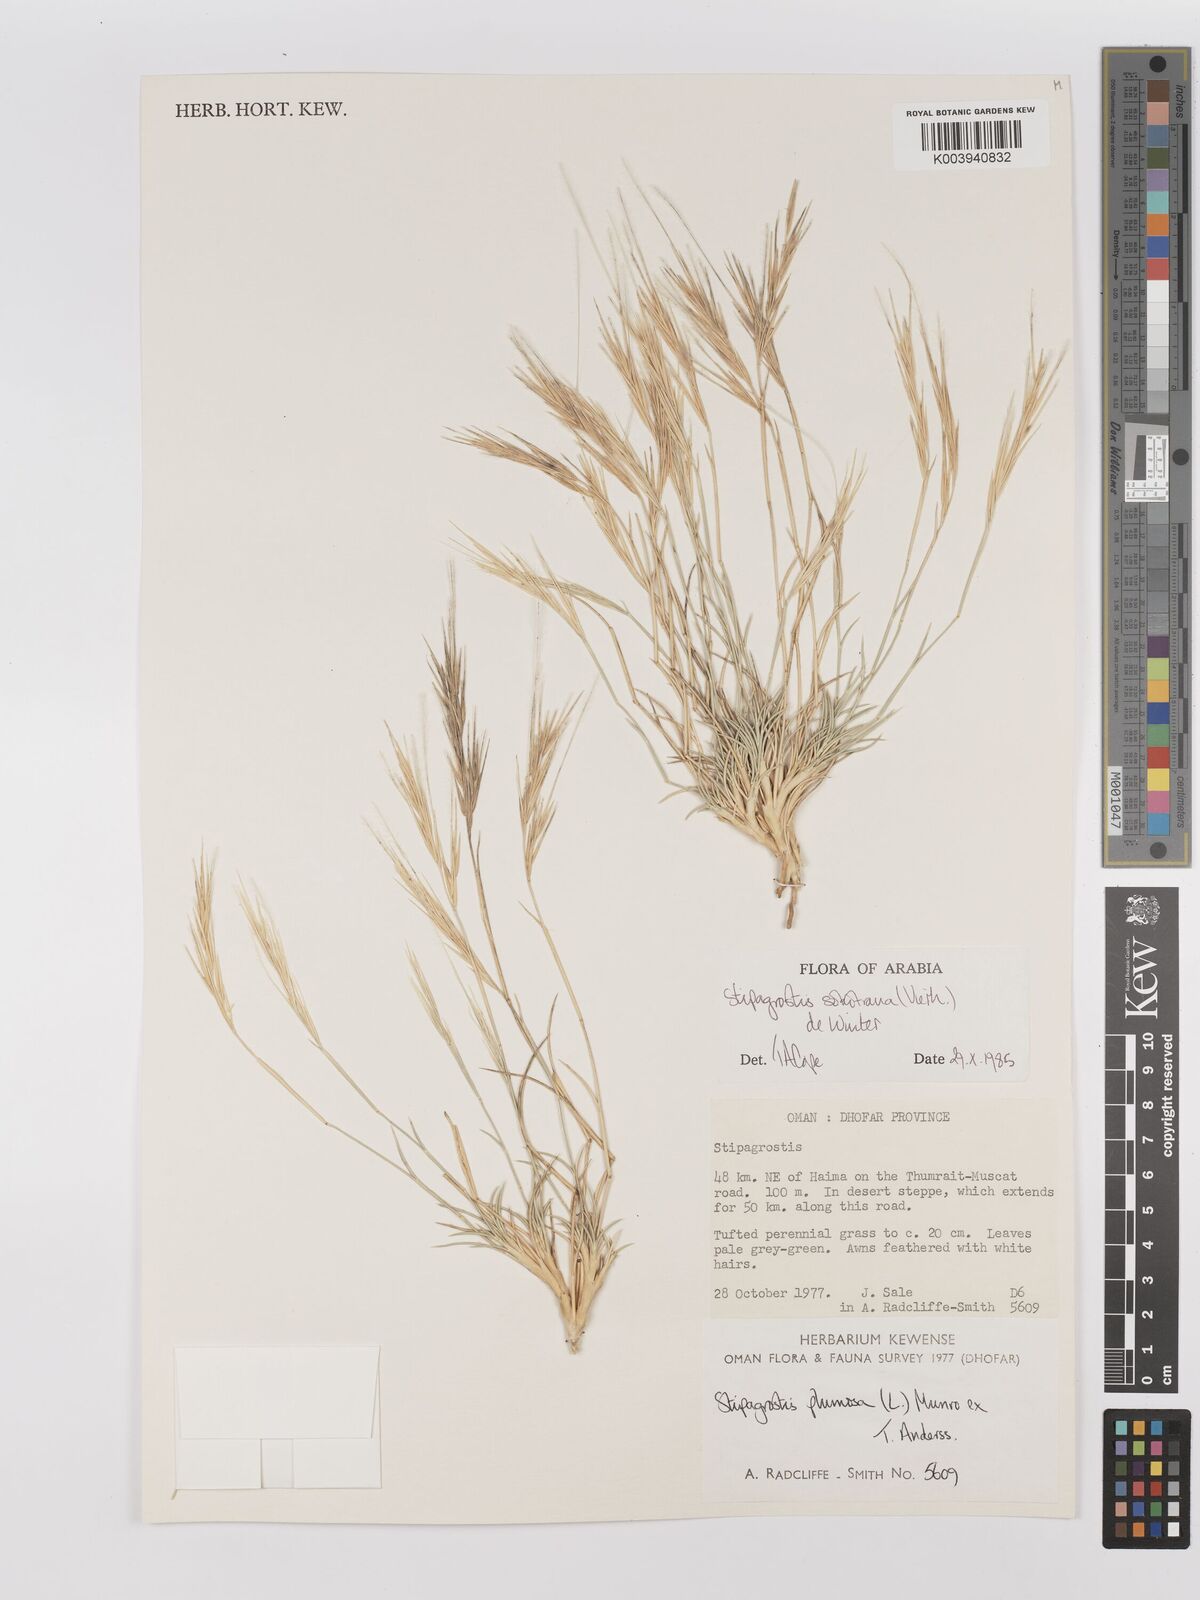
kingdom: Plantae
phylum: Tracheophyta
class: Liliopsida
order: Poales
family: Poaceae
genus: Stipagrostis
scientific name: Stipagrostis sokotrana
